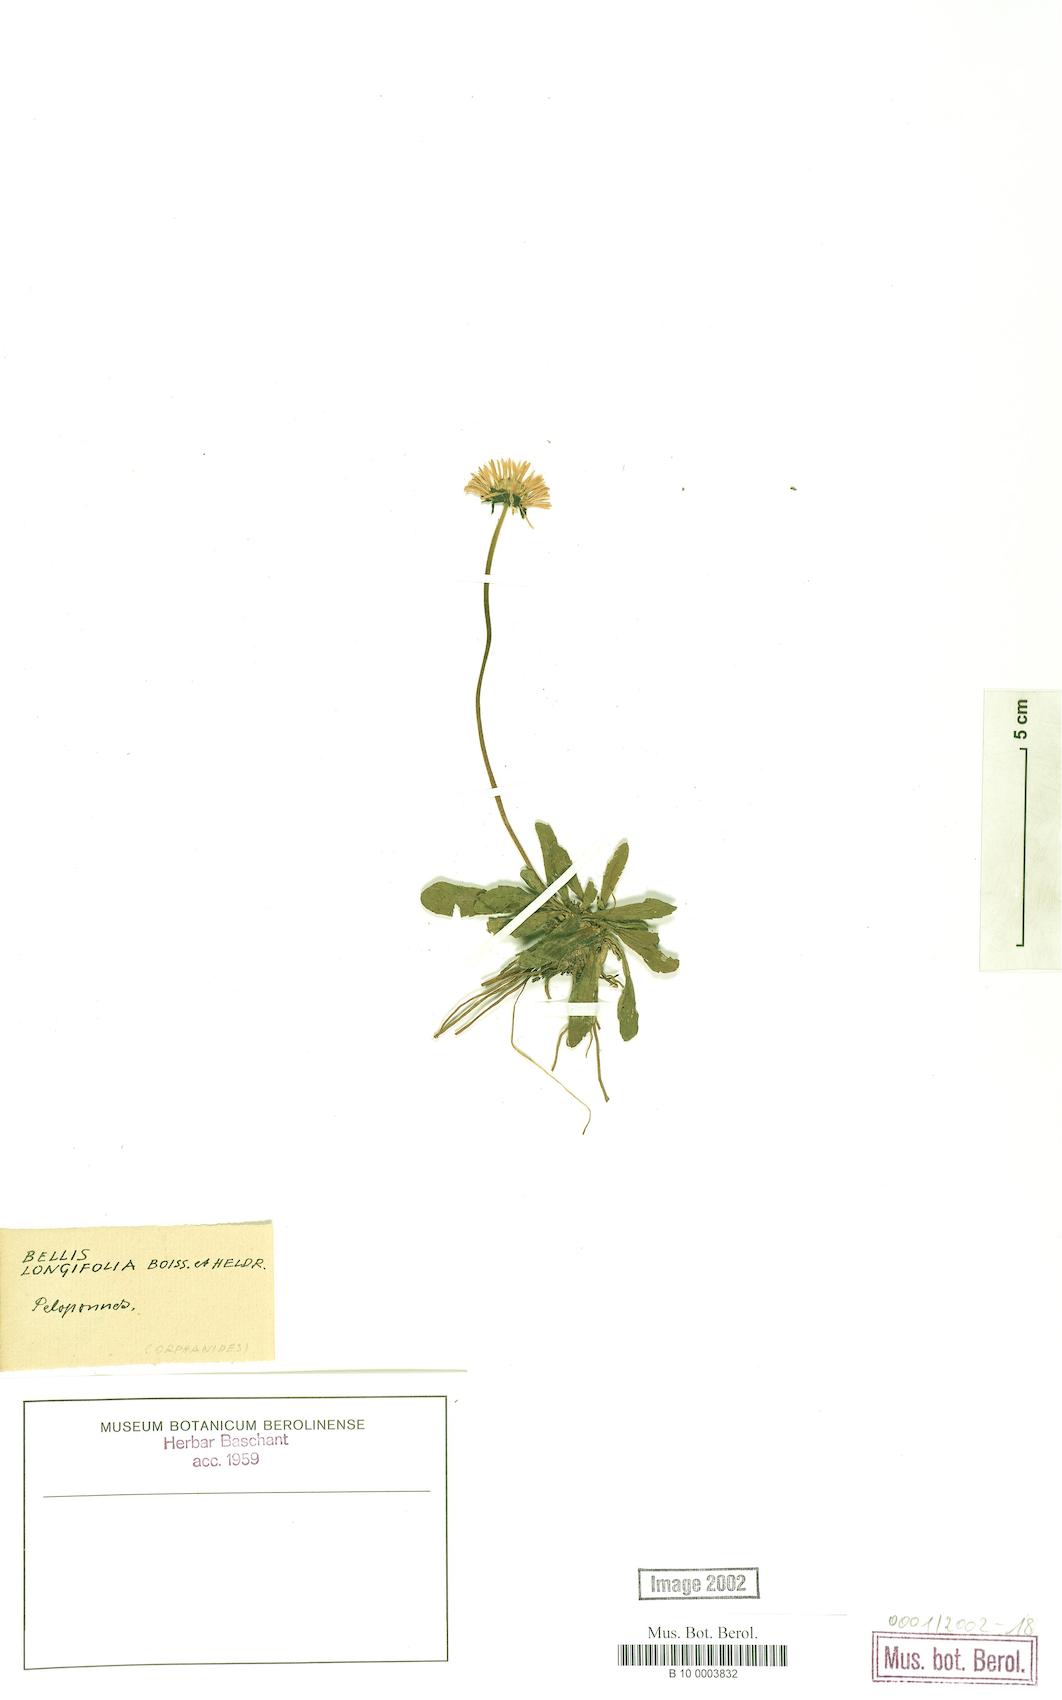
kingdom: Plantae
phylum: Tracheophyta
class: Magnoliopsida
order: Asterales
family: Asteraceae
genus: Bellis
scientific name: Bellis longifolia
